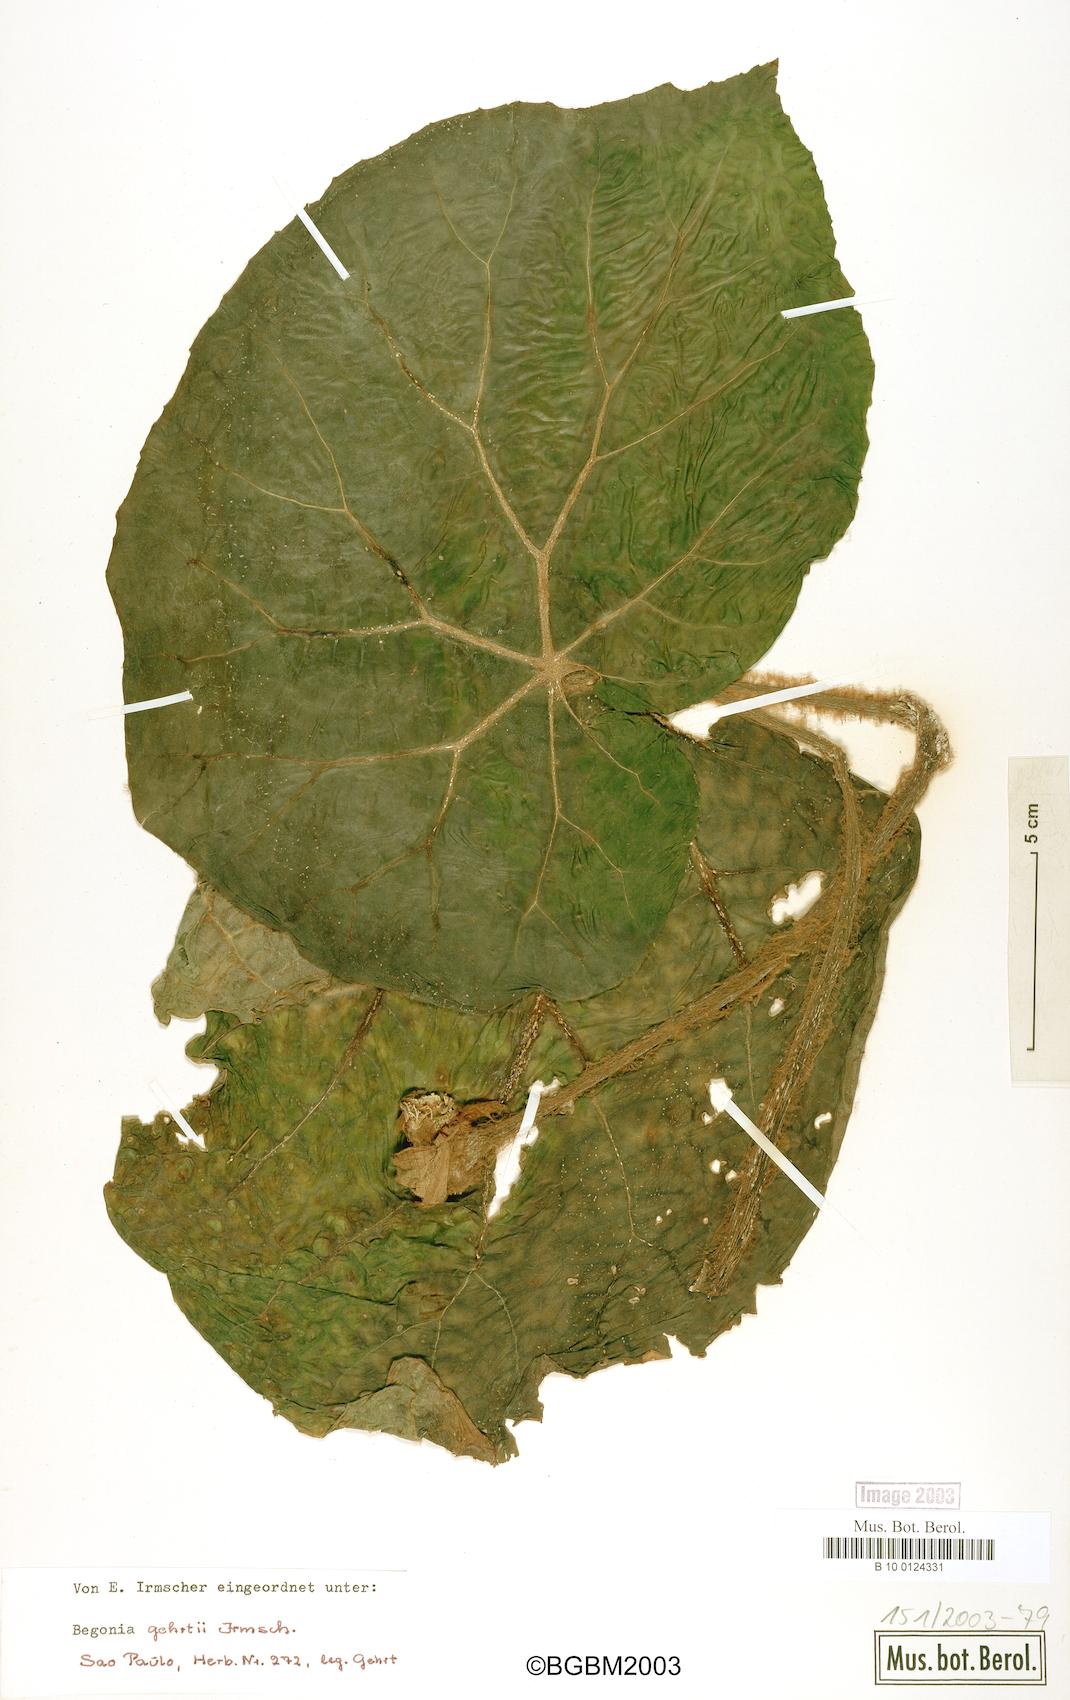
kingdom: Plantae
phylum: Tracheophyta
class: Magnoliopsida
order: Cucurbitales
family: Begoniaceae
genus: Begonia
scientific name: Begonia gehrtii
